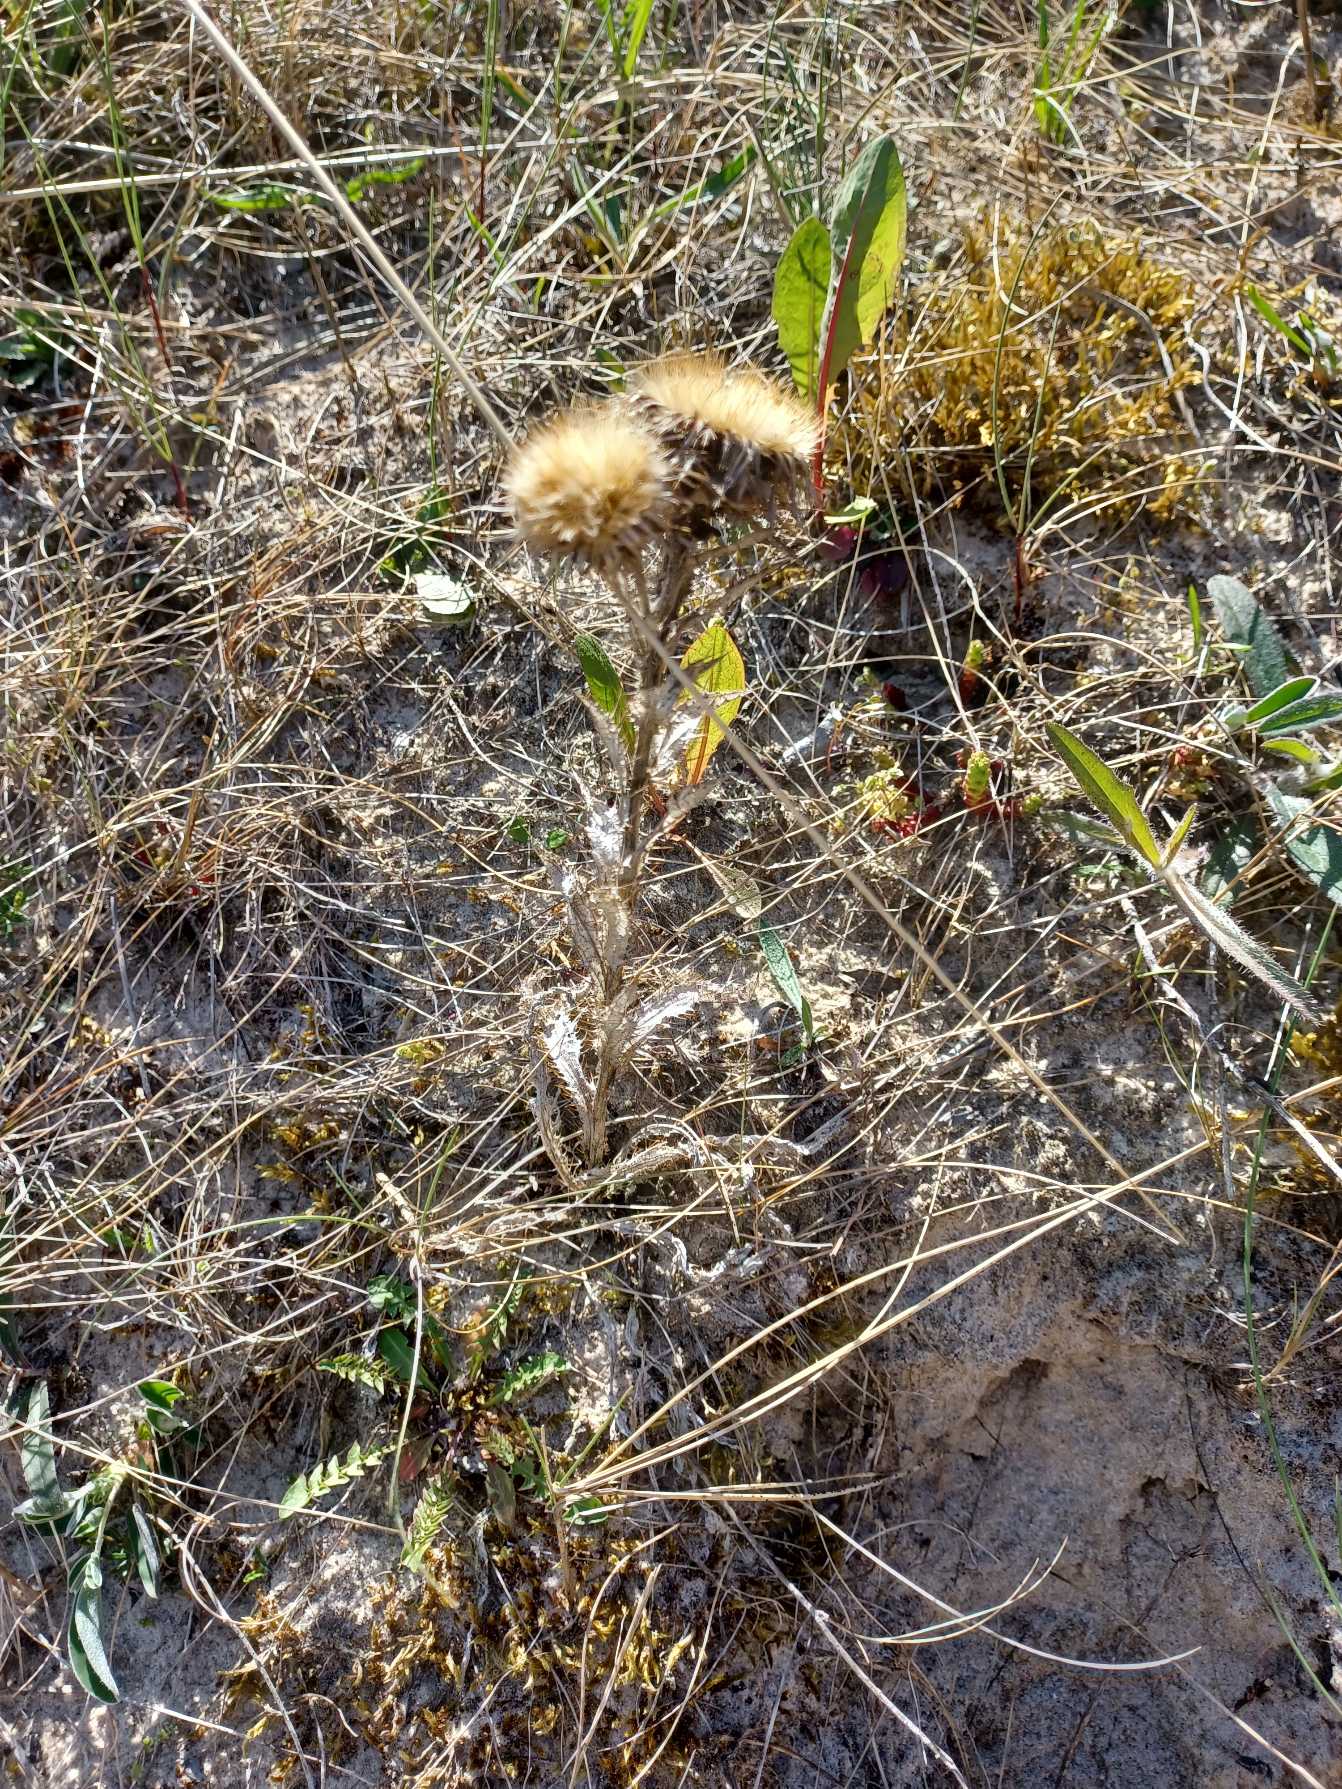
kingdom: Plantae
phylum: Tracheophyta
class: Magnoliopsida
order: Asterales
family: Asteraceae
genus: Carlina
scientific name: Carlina vulgaris
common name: Bakketidsel
